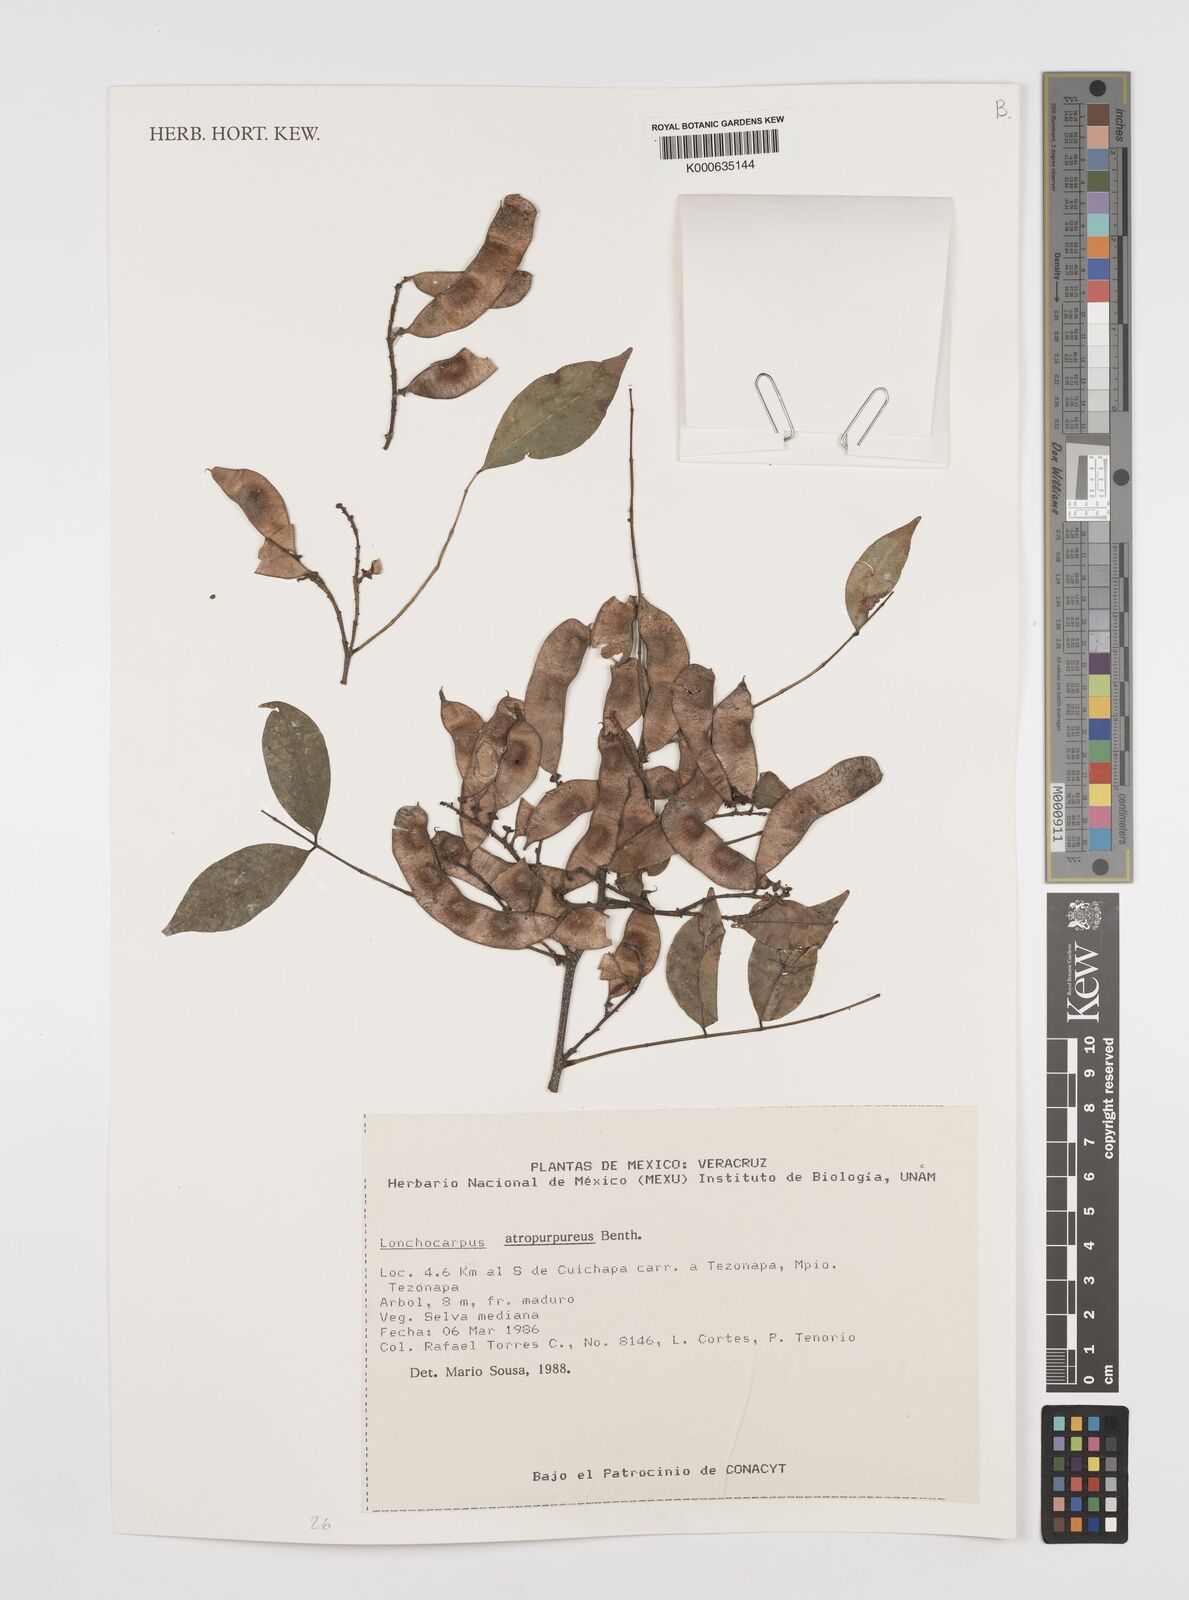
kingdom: Plantae
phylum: Tracheophyta
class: Magnoliopsida
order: Fabales
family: Fabaceae
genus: Lonchocarpus
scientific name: Lonchocarpus atropurpureus
